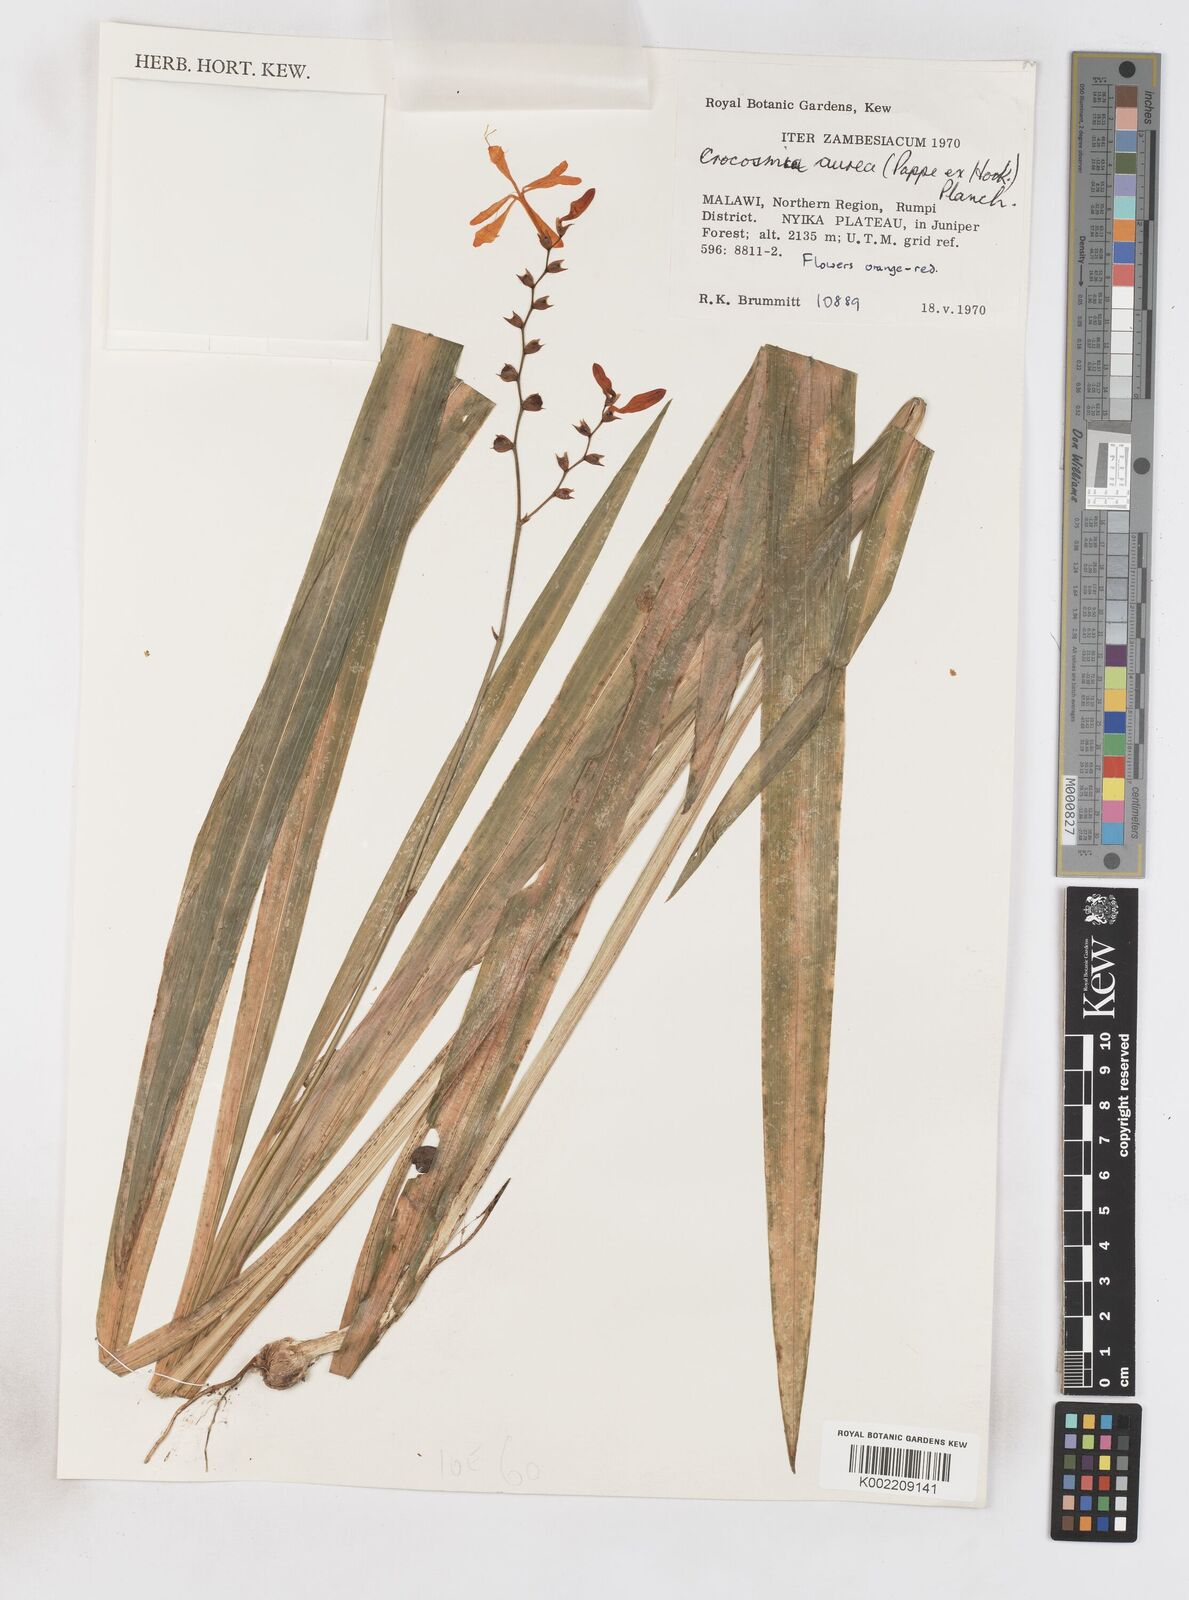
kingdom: Plantae
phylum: Tracheophyta
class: Liliopsida
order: Asparagales
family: Iridaceae
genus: Crocosmia
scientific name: Crocosmia aurea
